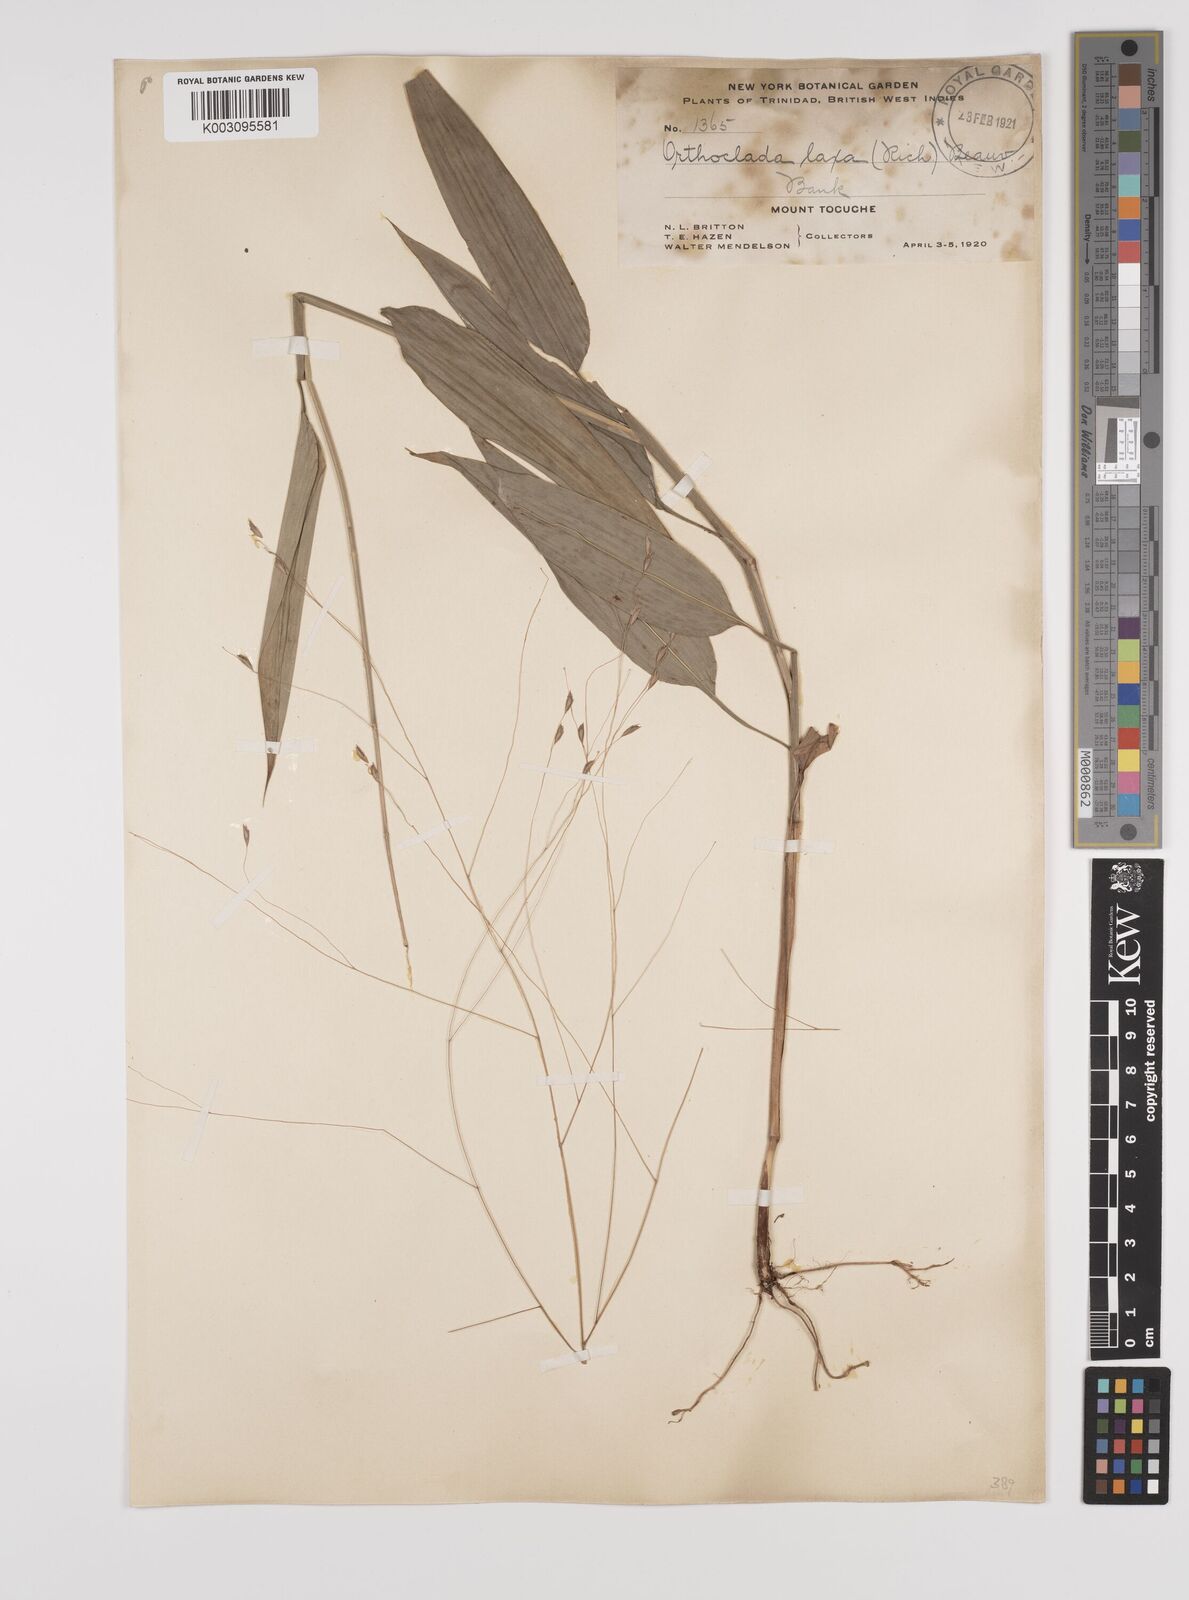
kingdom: Plantae
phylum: Tracheophyta
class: Liliopsida
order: Poales
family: Poaceae
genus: Orthoclada
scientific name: Orthoclada laxa
